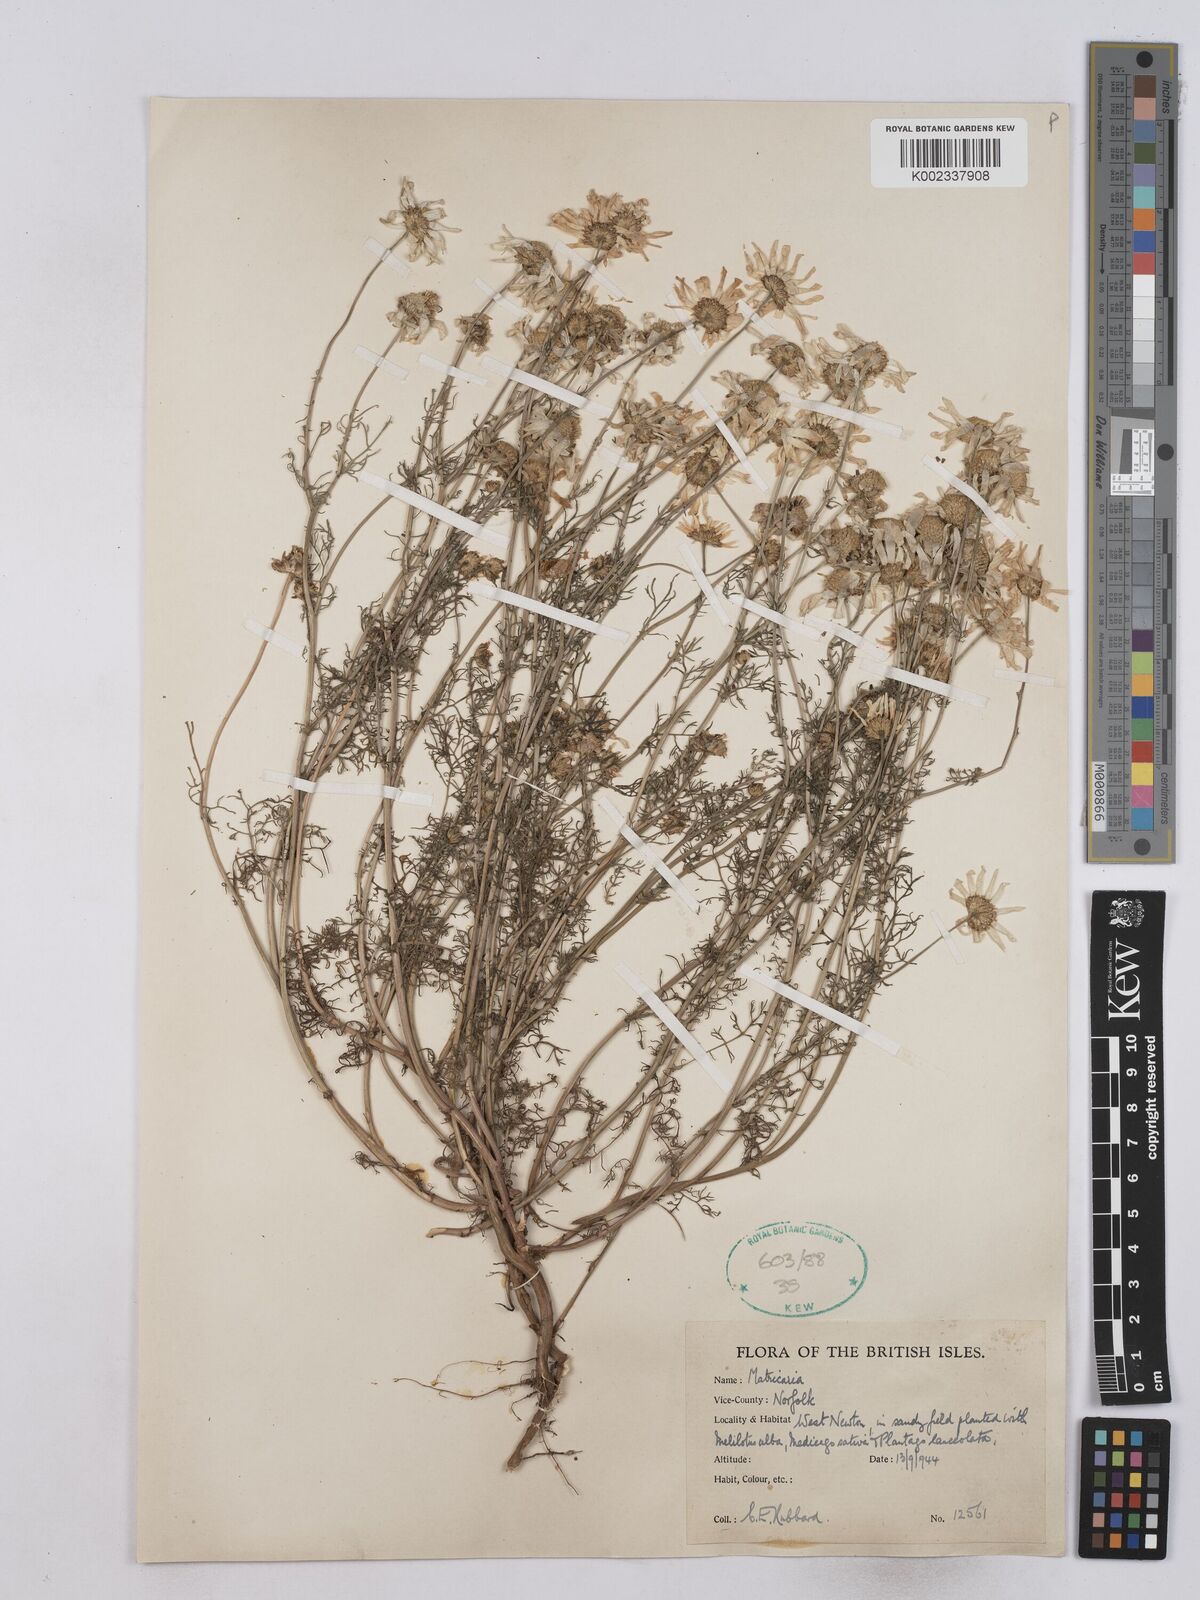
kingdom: Plantae
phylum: Tracheophyta
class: Magnoliopsida
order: Asterales
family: Asteraceae
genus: Matricaria
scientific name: Matricaria discoidea
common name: Disc mayweed
